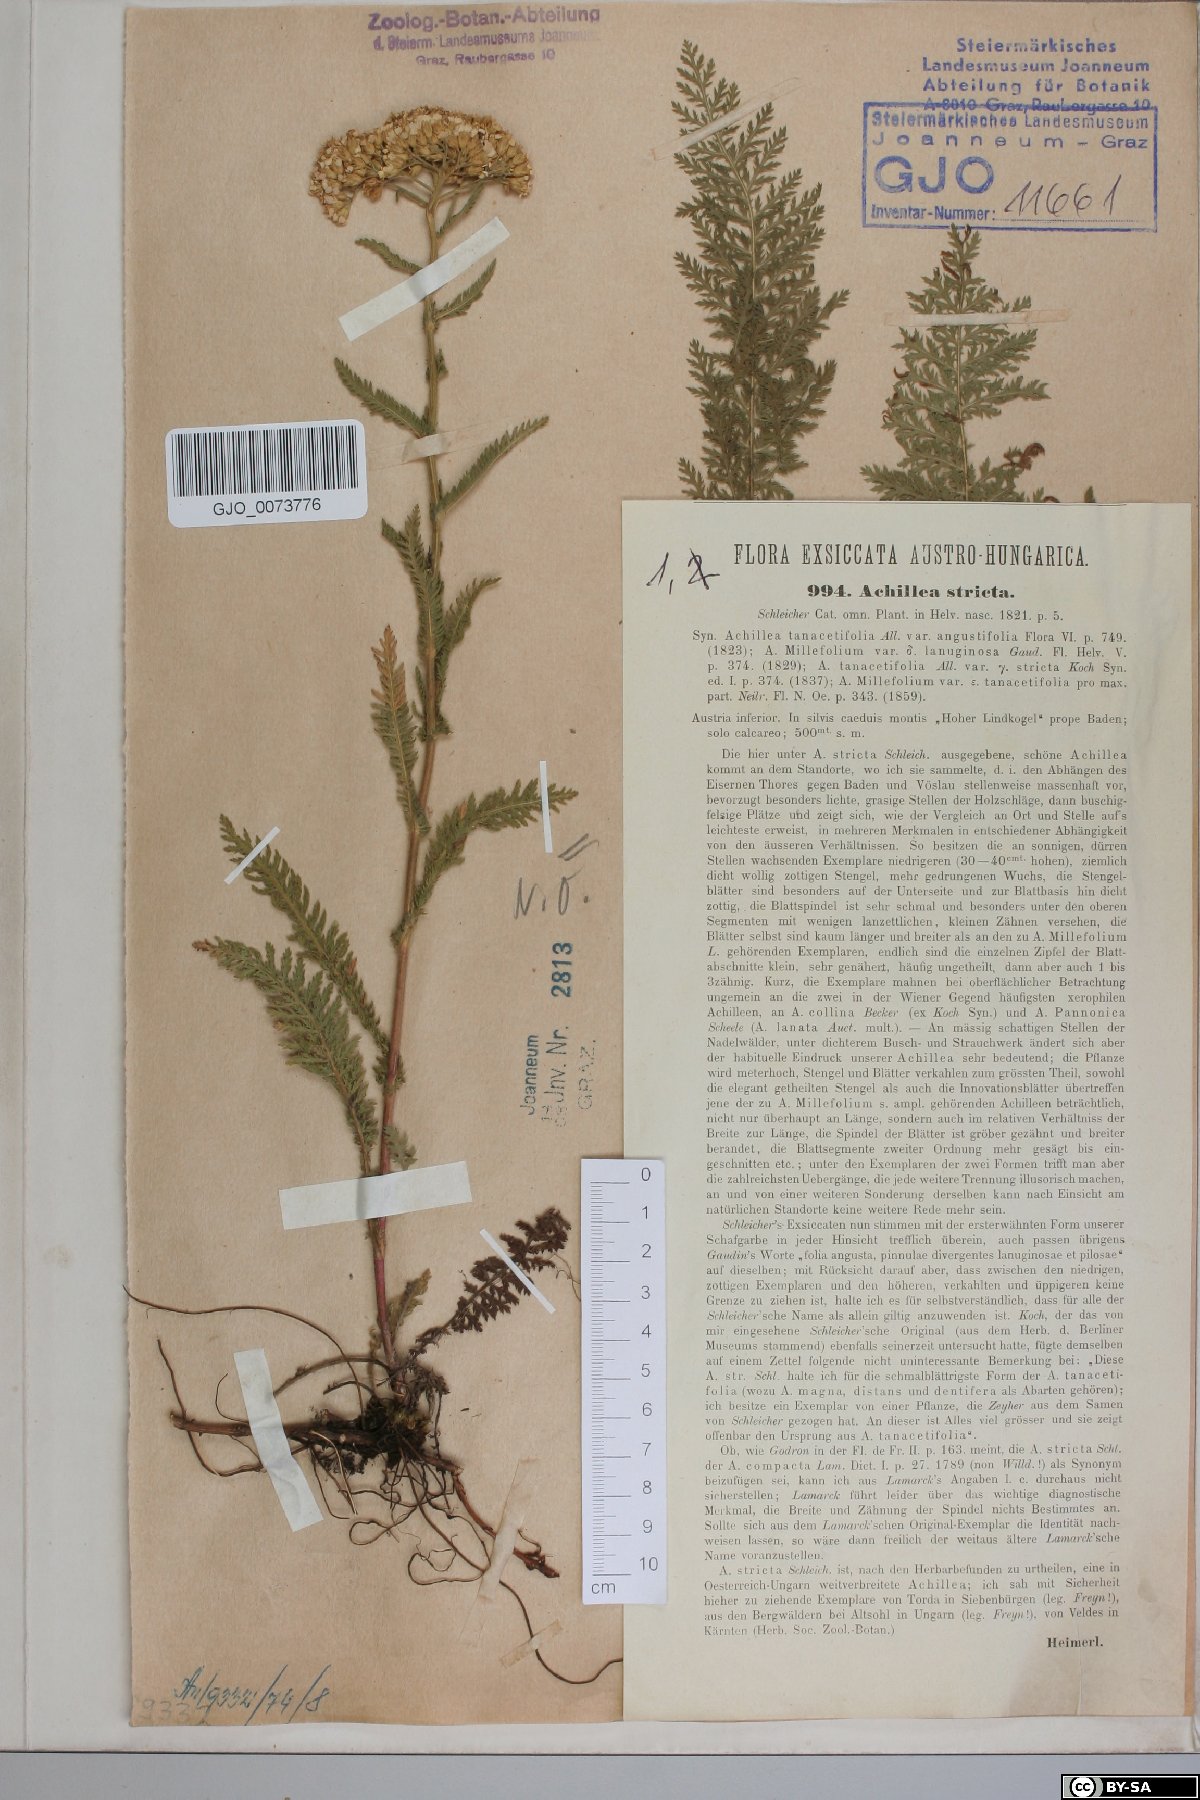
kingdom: Plantae
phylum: Tracheophyta
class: Magnoliopsida
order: Asterales
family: Asteraceae
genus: Achillea
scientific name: Achillea distans
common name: Tall yarrow
